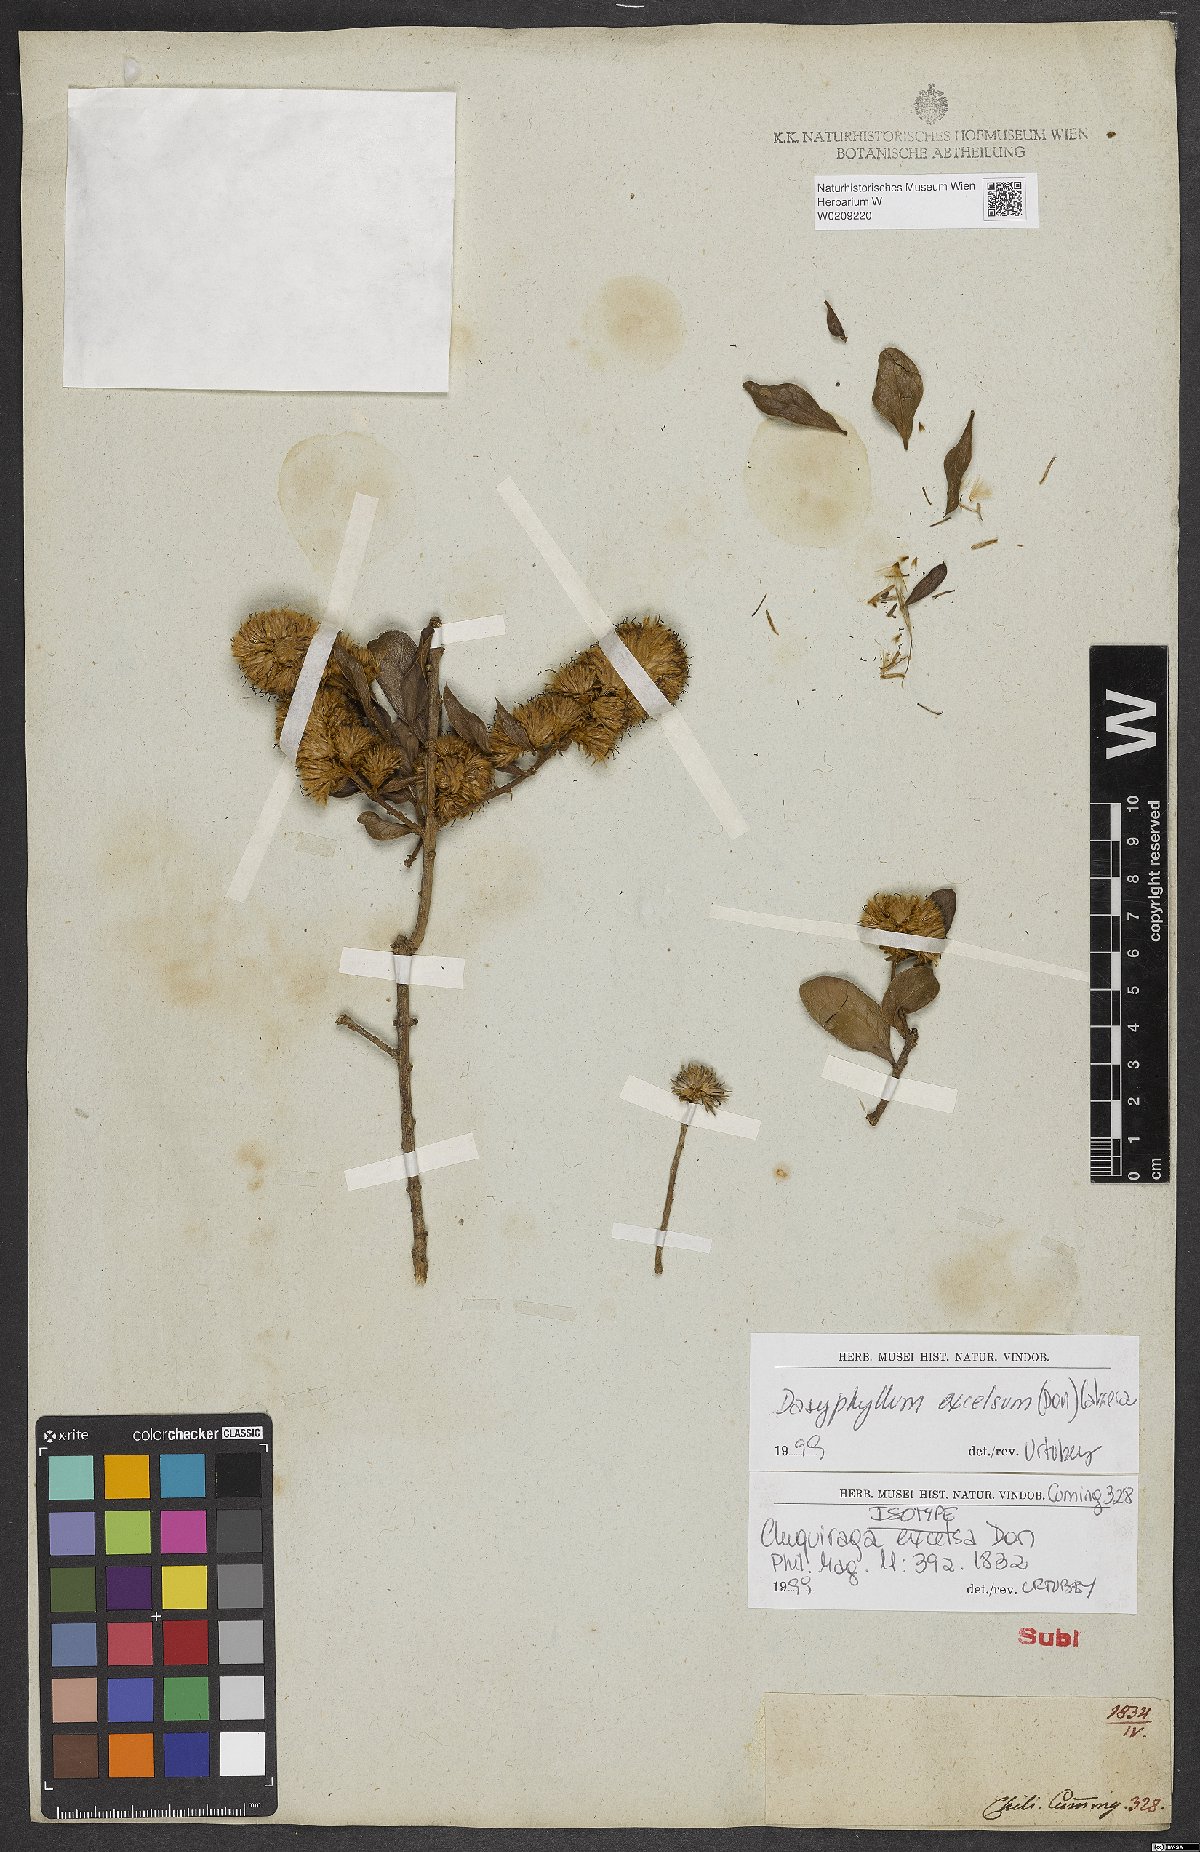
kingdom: Plantae
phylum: Tracheophyta
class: Magnoliopsida
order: Asterales
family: Asteraceae
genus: Archidasyphyllum
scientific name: Archidasyphyllum excelsum
